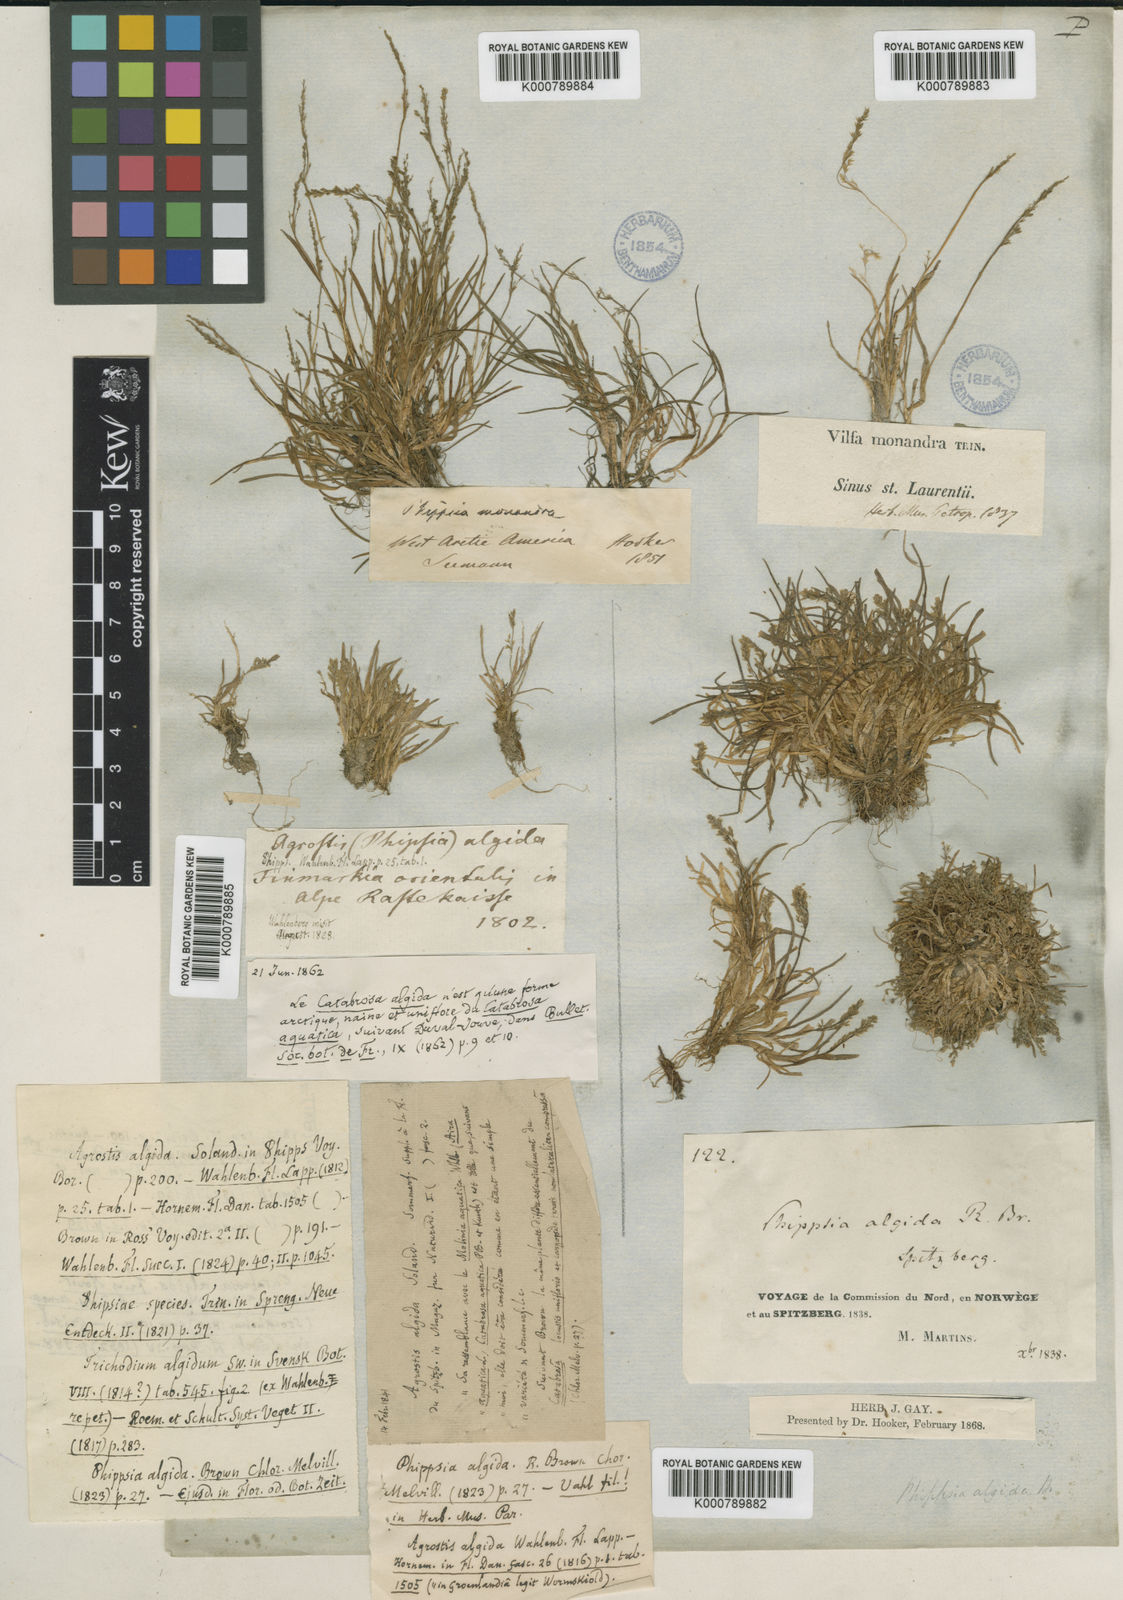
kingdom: Plantae
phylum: Tracheophyta
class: Liliopsida
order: Poales
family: Poaceae
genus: Phippsia
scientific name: Phippsia algida
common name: Ice grass
